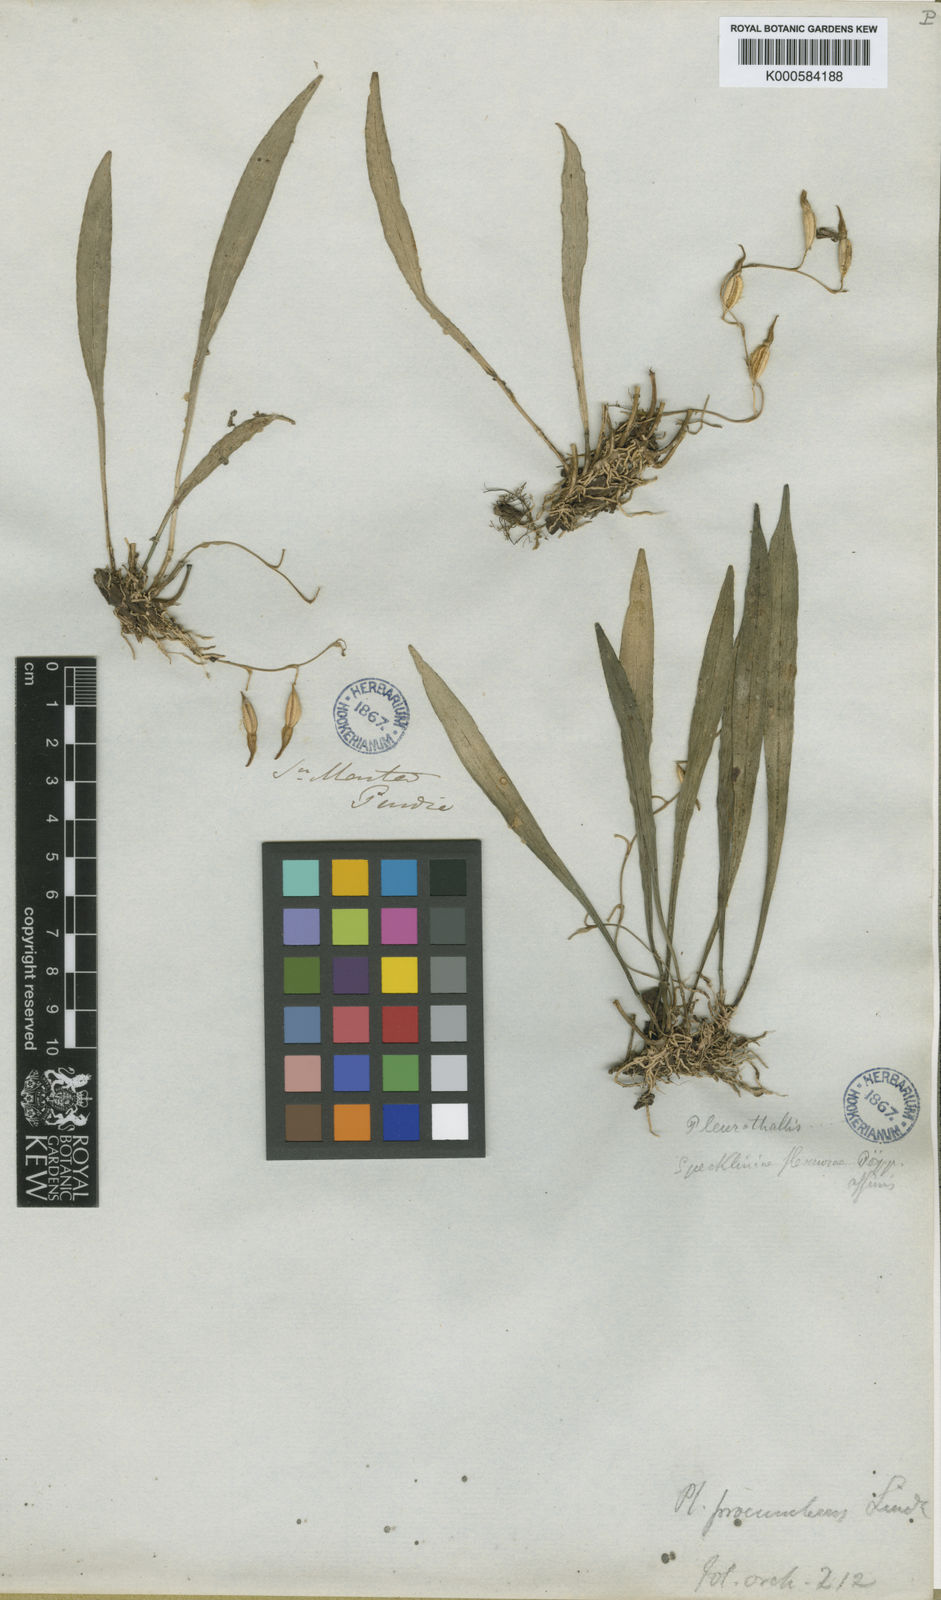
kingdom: Plantae
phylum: Tracheophyta
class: Liliopsida
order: Asparagales
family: Orchidaceae
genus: Pabstiella
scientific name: Pabstiella tripterantha
